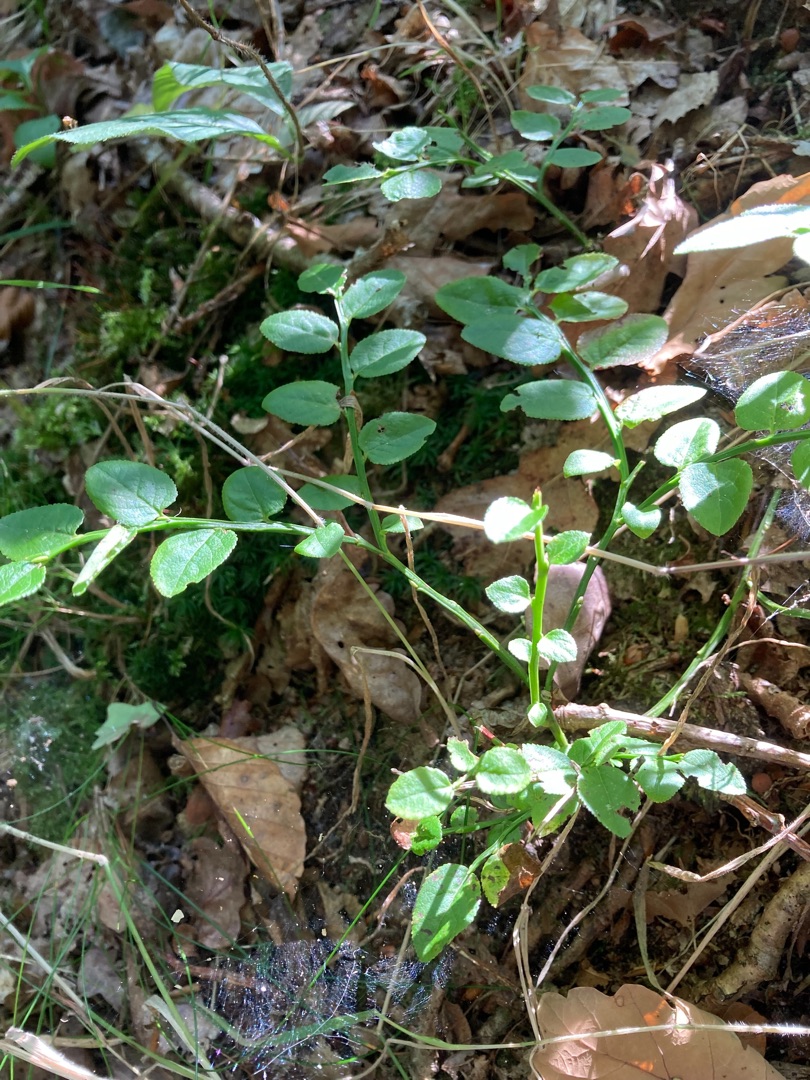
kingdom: Plantae
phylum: Tracheophyta
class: Magnoliopsida
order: Ericales
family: Ericaceae
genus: Vaccinium
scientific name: Vaccinium myrtillus
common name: Blåbær
